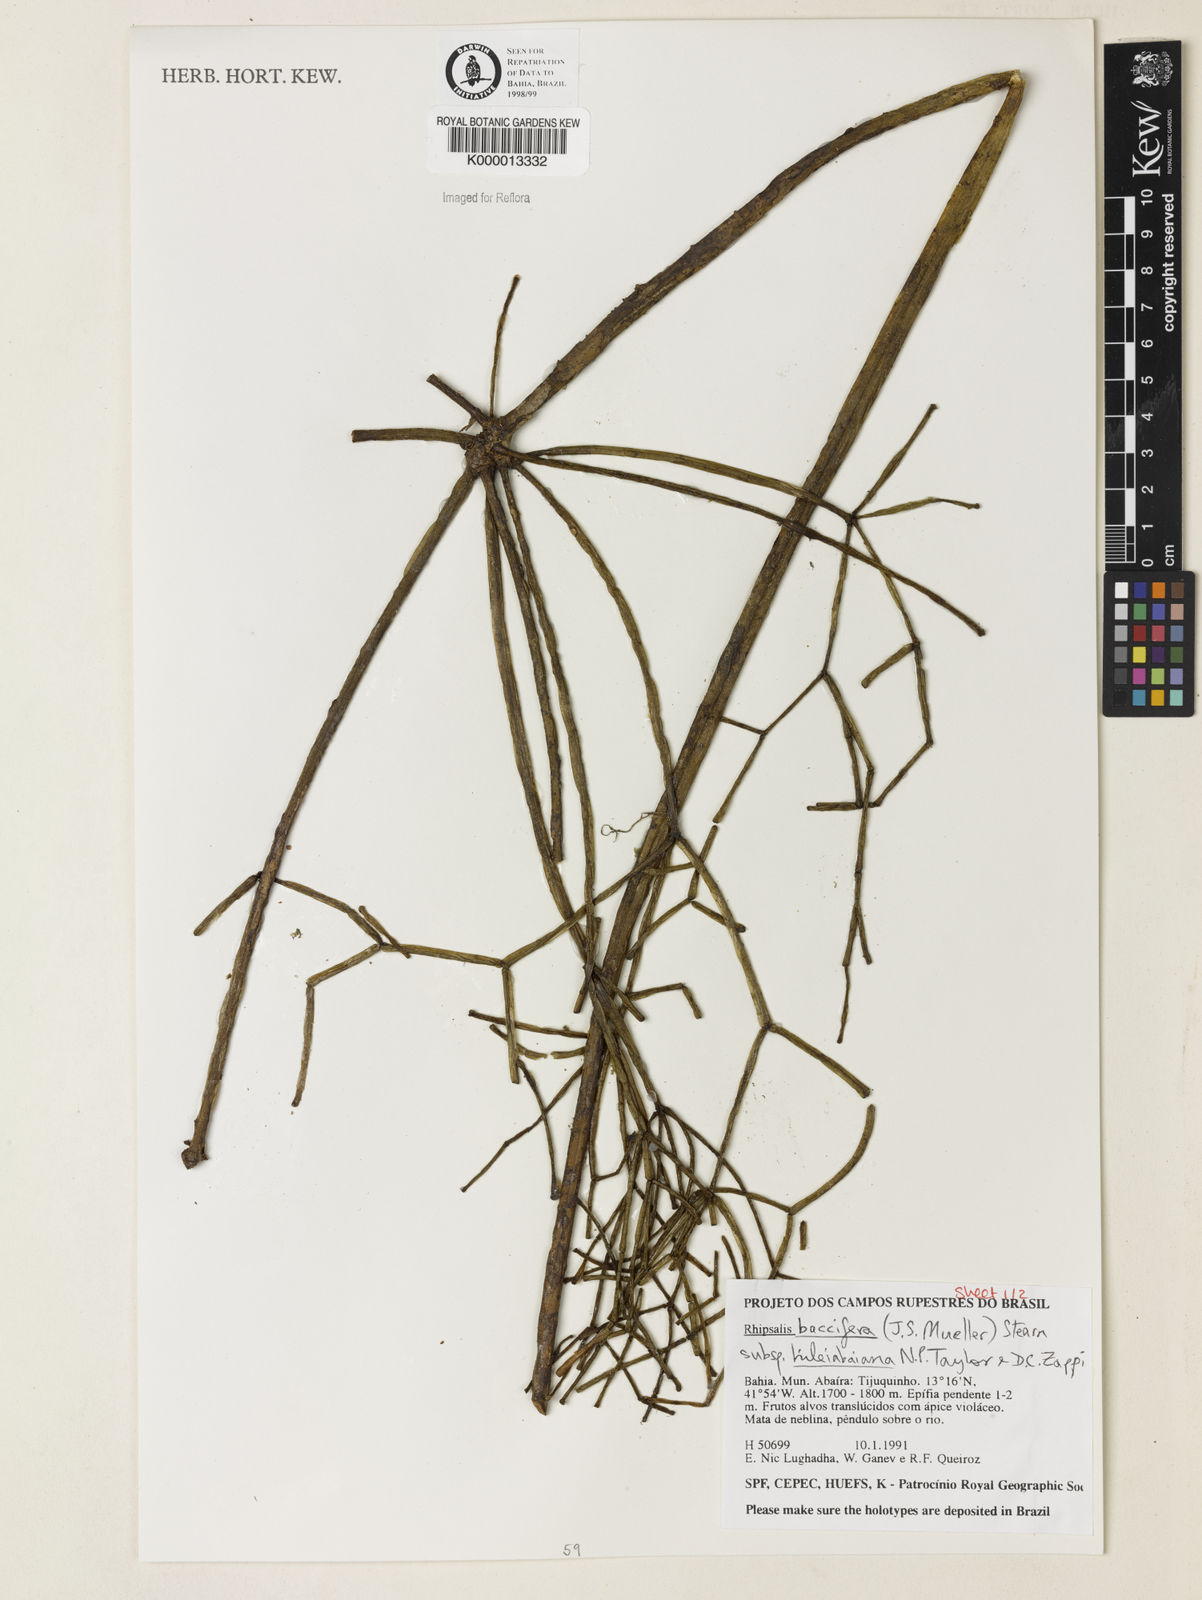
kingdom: Plantae
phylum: Tracheophyta
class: Magnoliopsida
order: Caryophyllales
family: Cactaceae
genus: Rhipsalis
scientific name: Rhipsalis hileiabaiana
